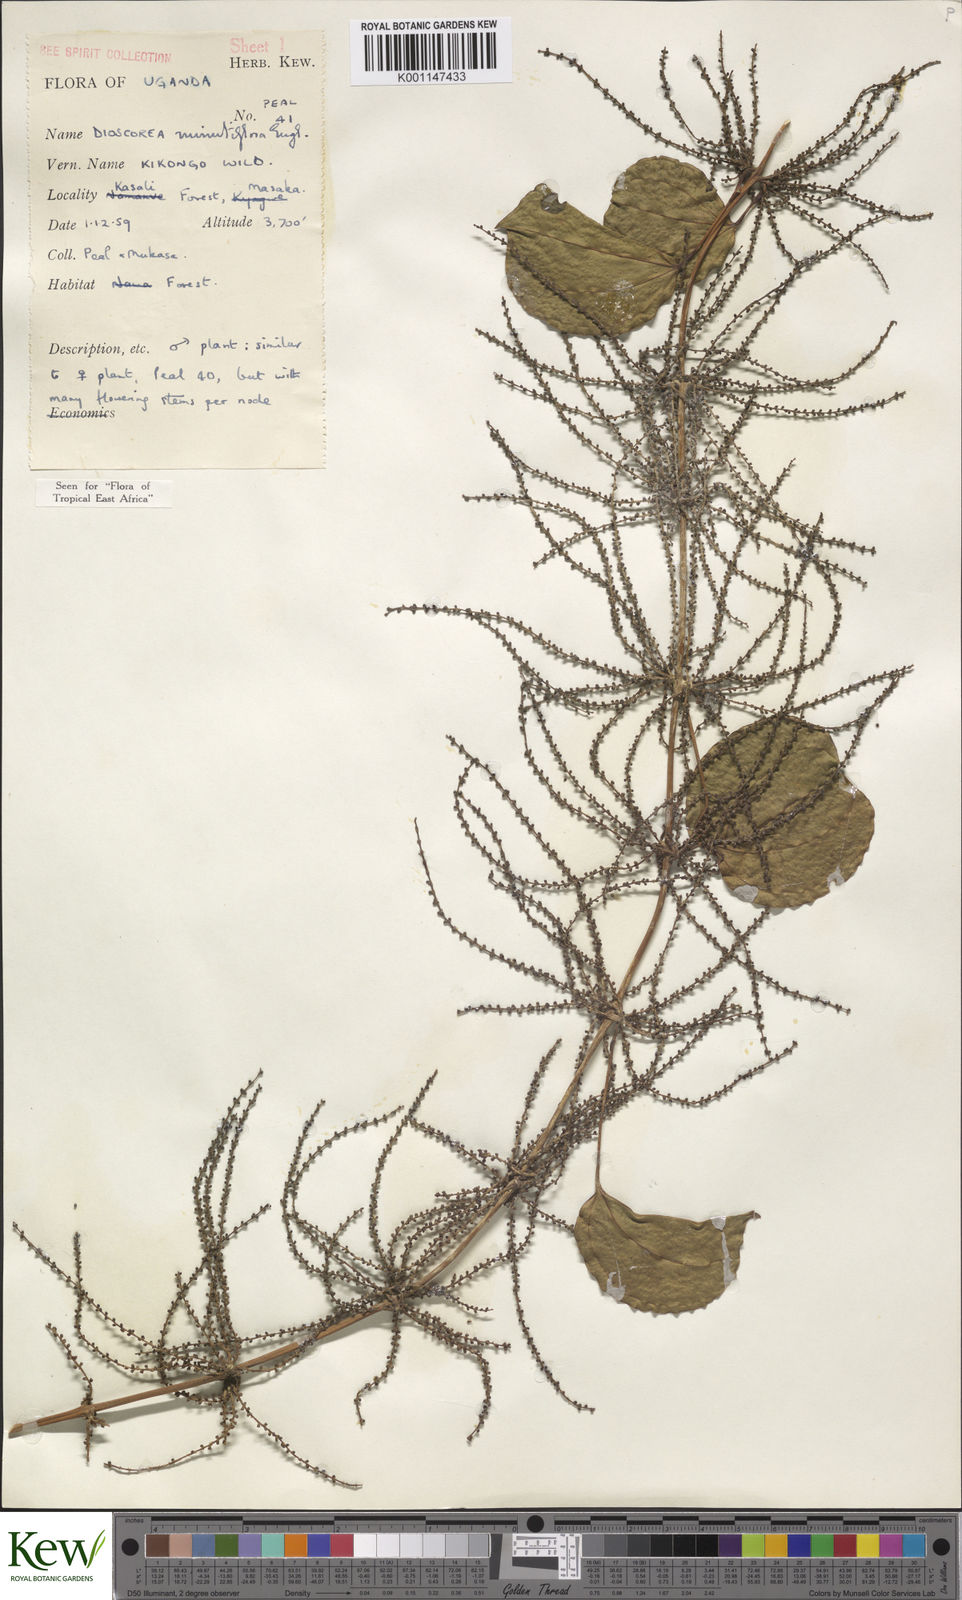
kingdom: Plantae
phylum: Tracheophyta
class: Liliopsida
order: Dioscoreales
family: Dioscoreaceae
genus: Dioscorea
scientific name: Dioscorea minutiflora
